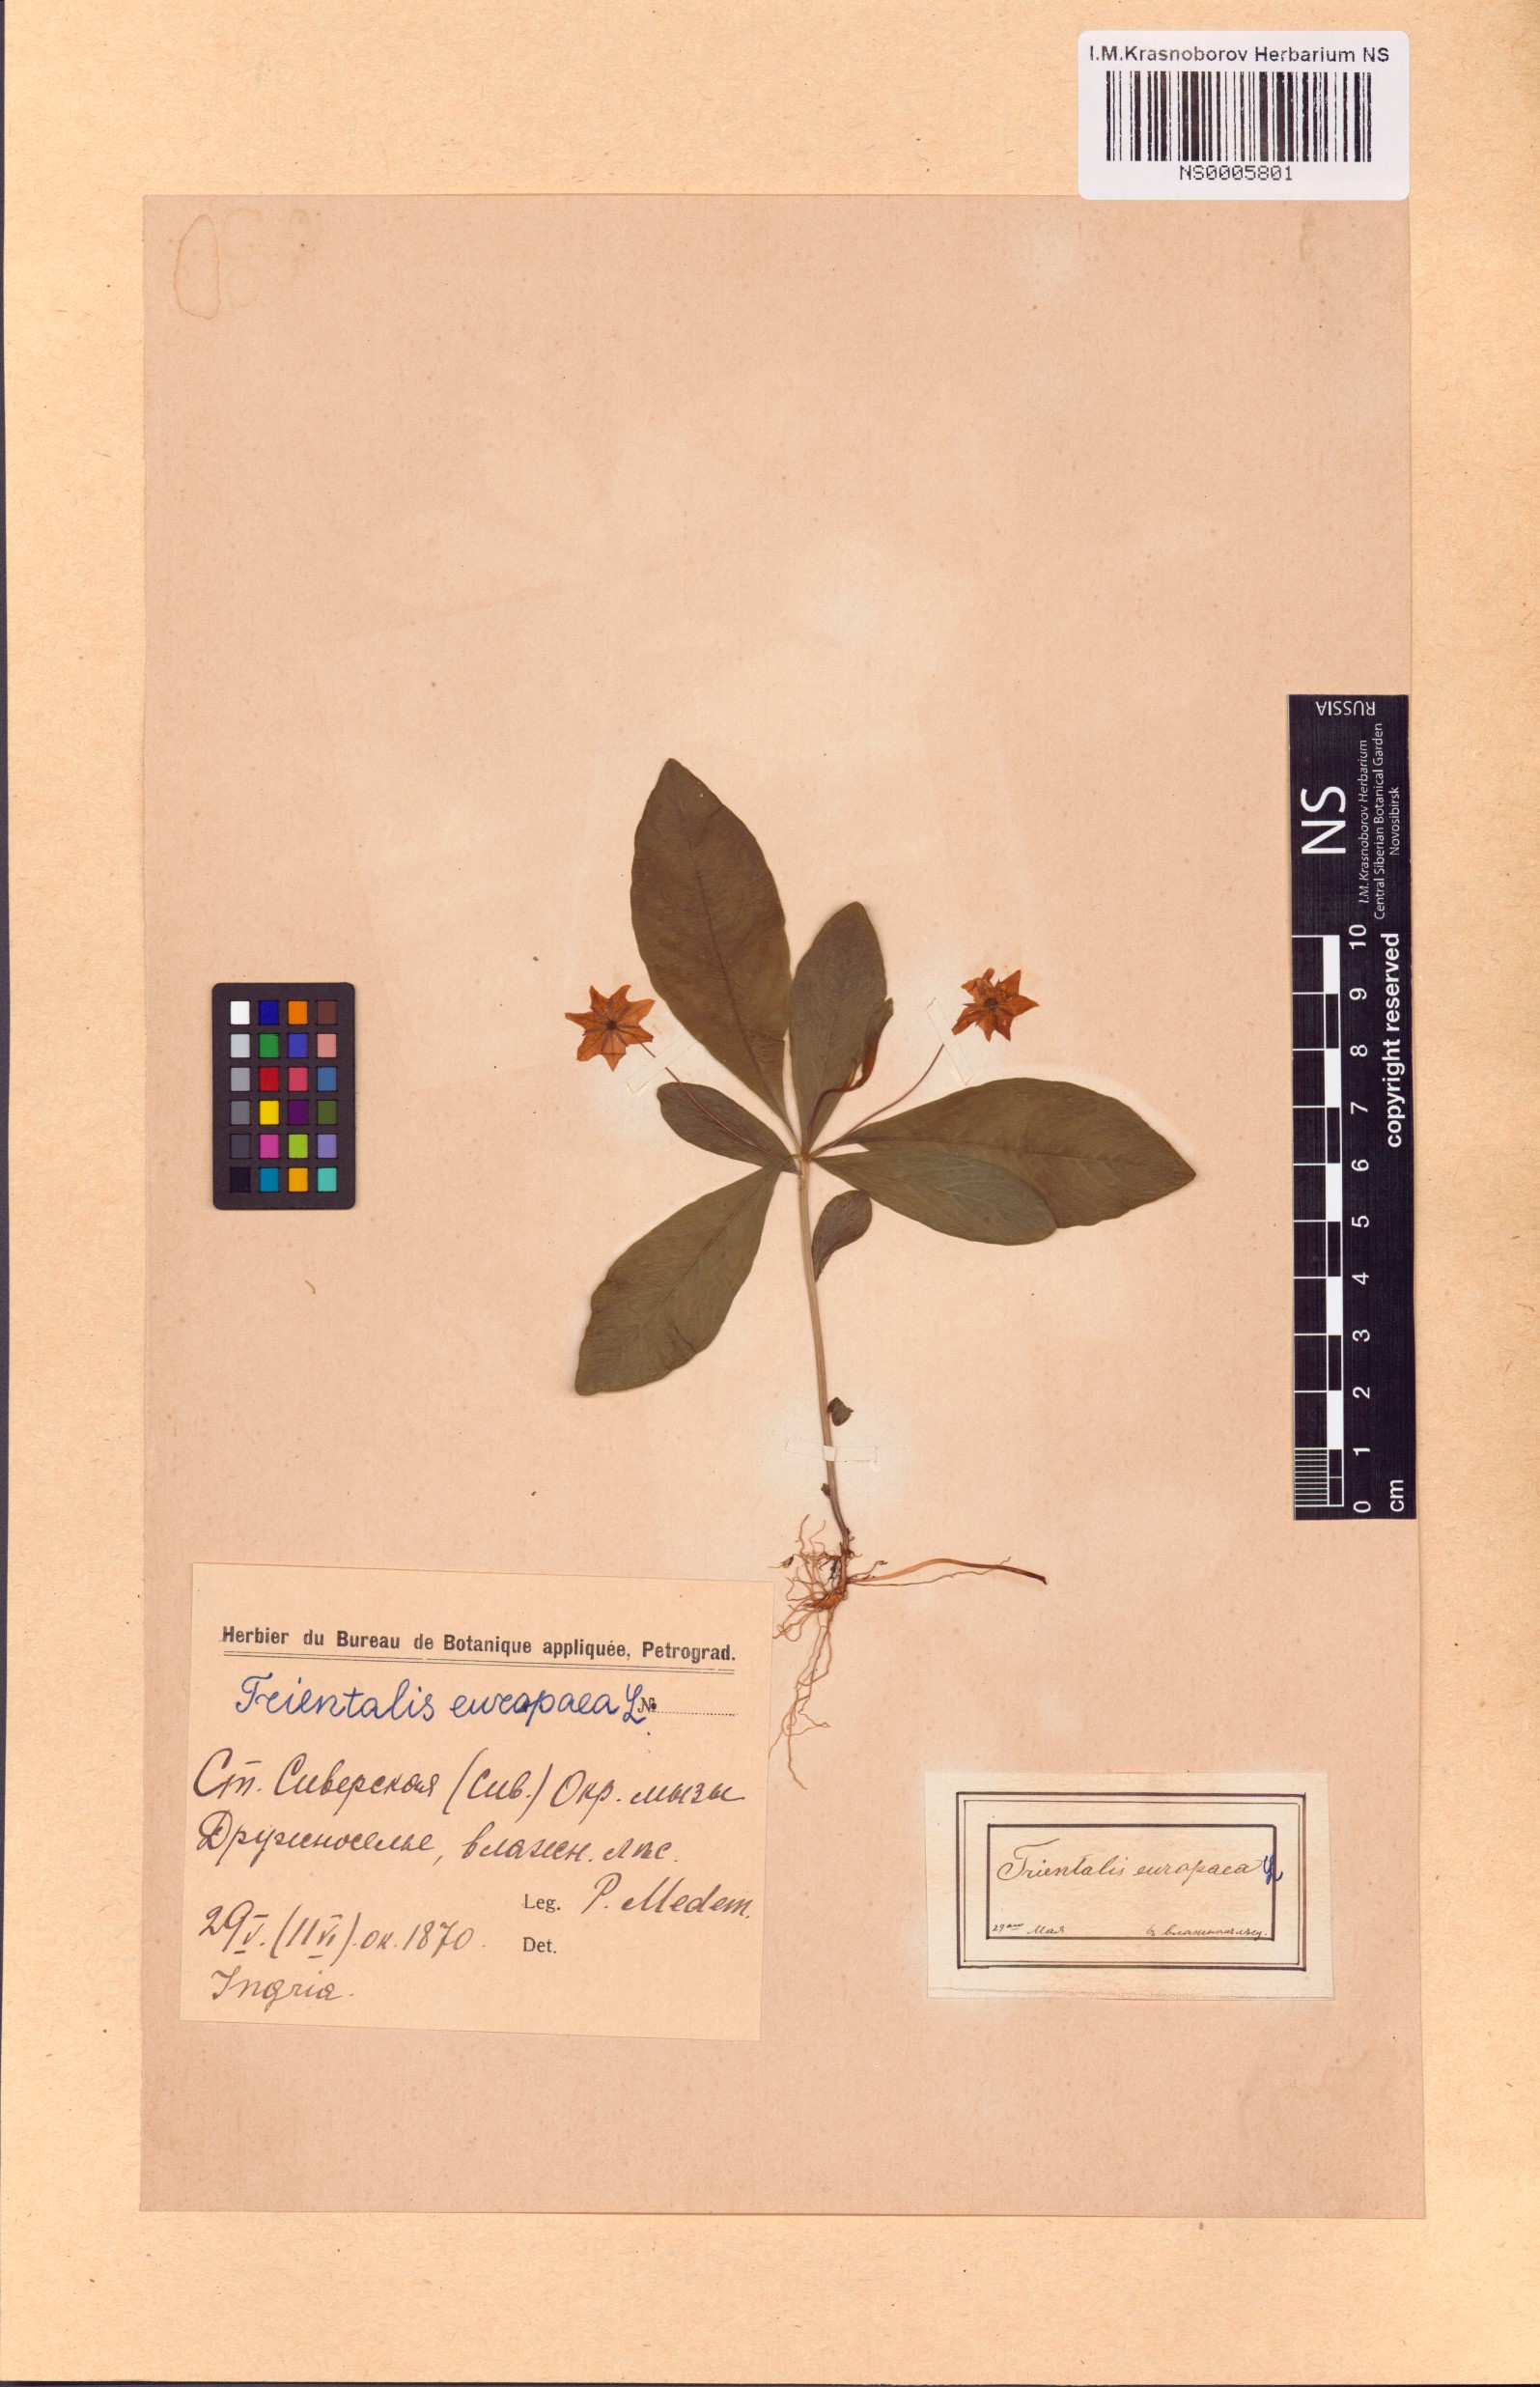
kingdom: Plantae
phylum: Tracheophyta
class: Magnoliopsida
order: Ericales
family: Primulaceae
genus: Lysimachia
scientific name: Lysimachia europaea
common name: Arctic starflower
